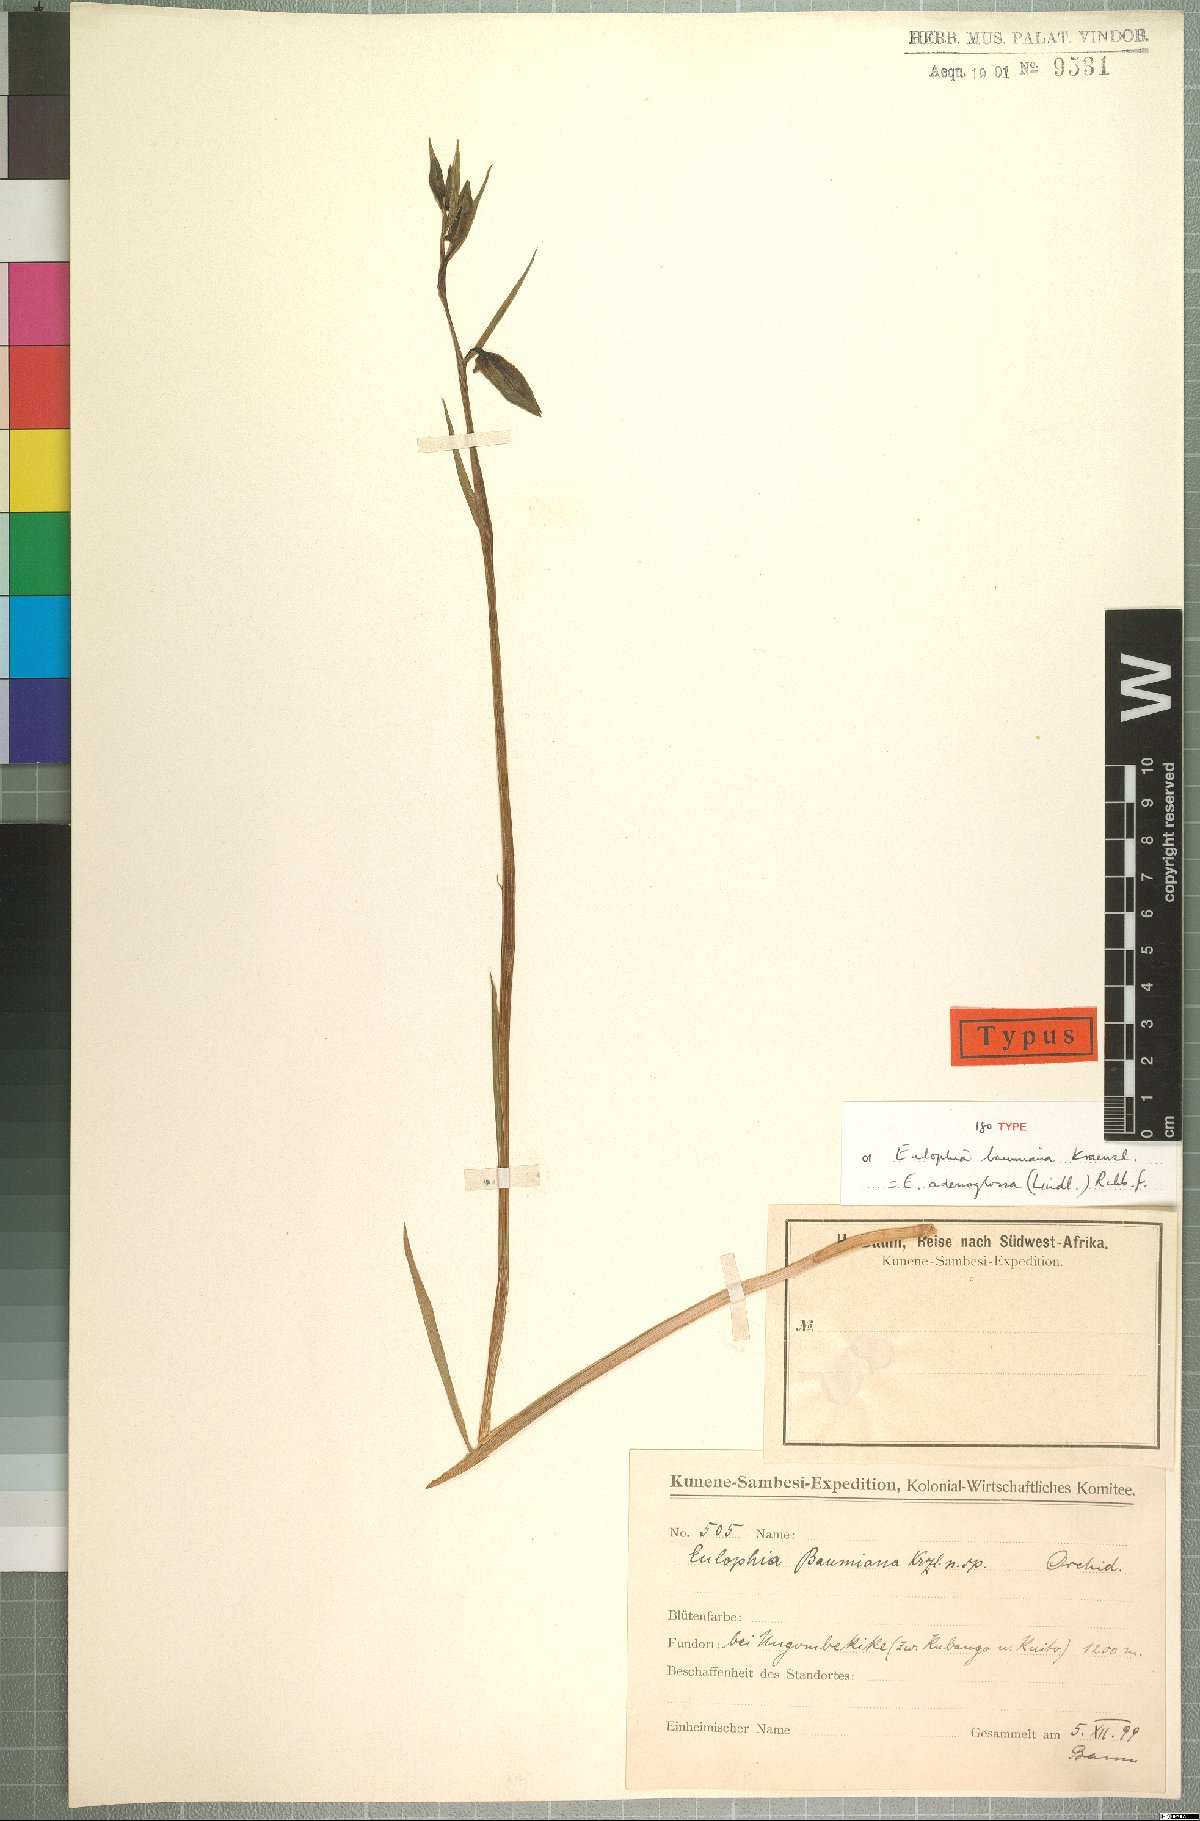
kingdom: Plantae
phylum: Tracheophyta
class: Liliopsida
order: Asparagales
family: Orchidaceae
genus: Eulophia
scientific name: Eulophia adenoglossa
